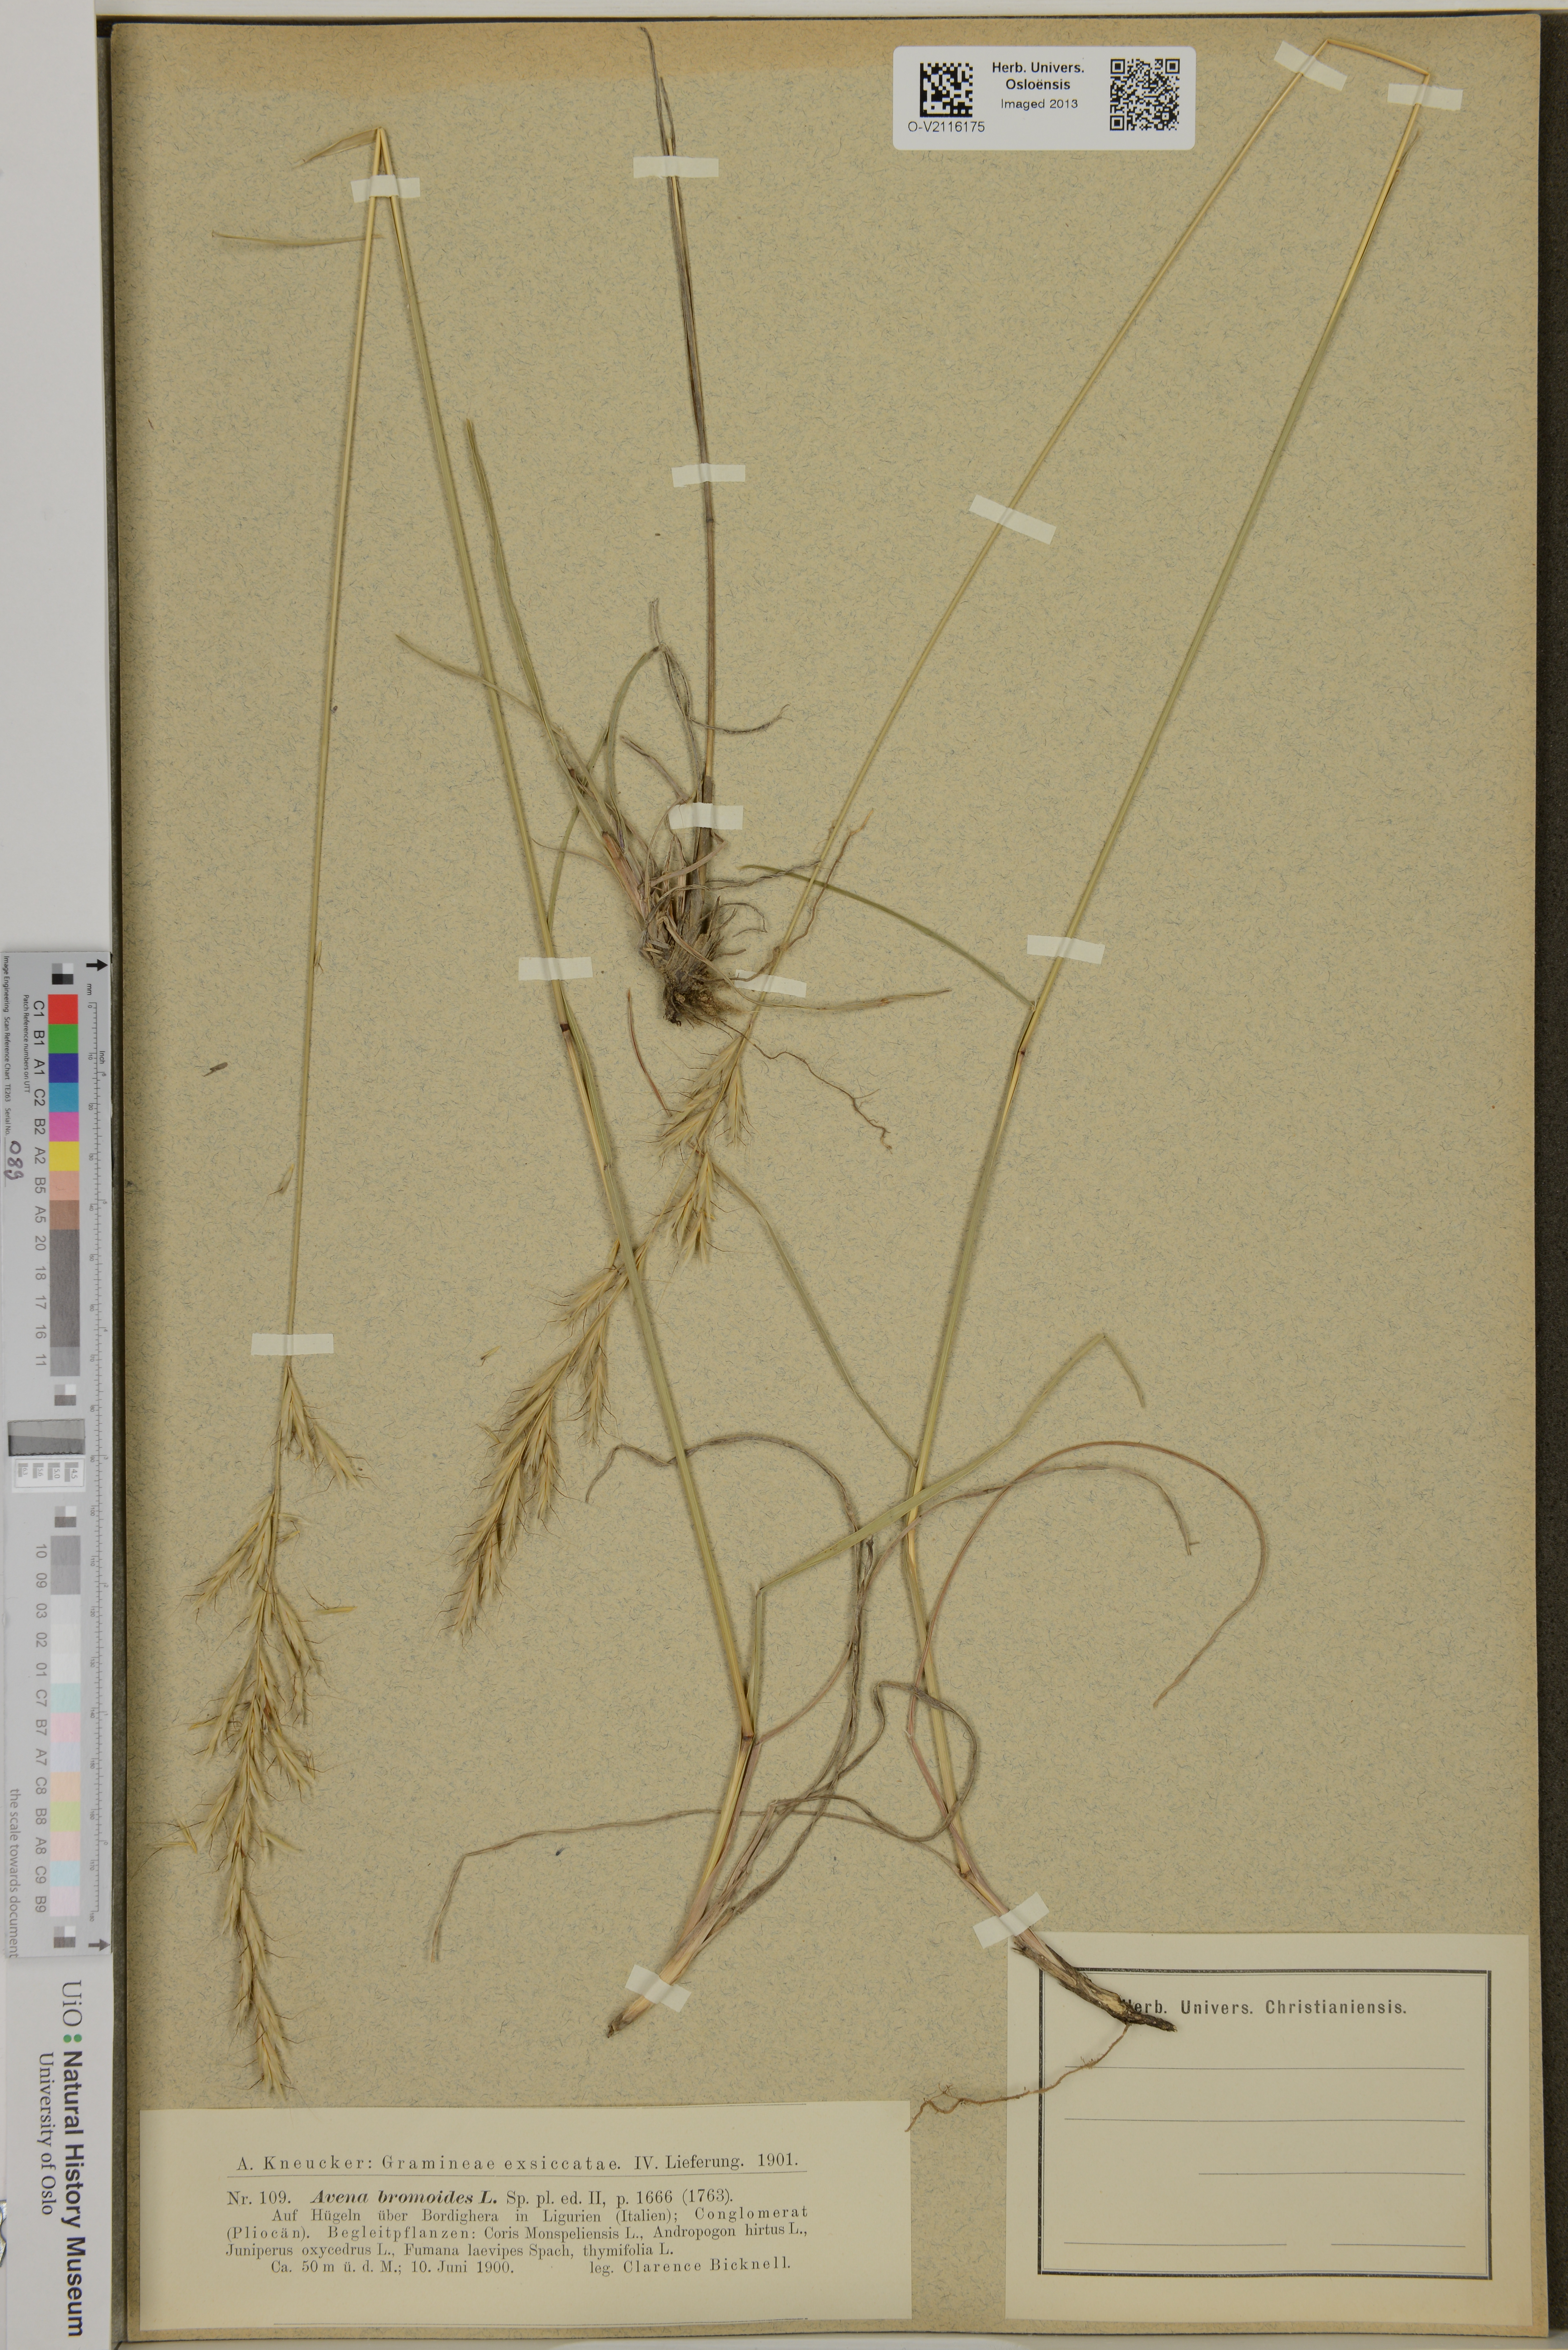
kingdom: Plantae
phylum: Tracheophyta
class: Liliopsida
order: Poales
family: Poaceae
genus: Helictochloa
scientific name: Helictochloa
